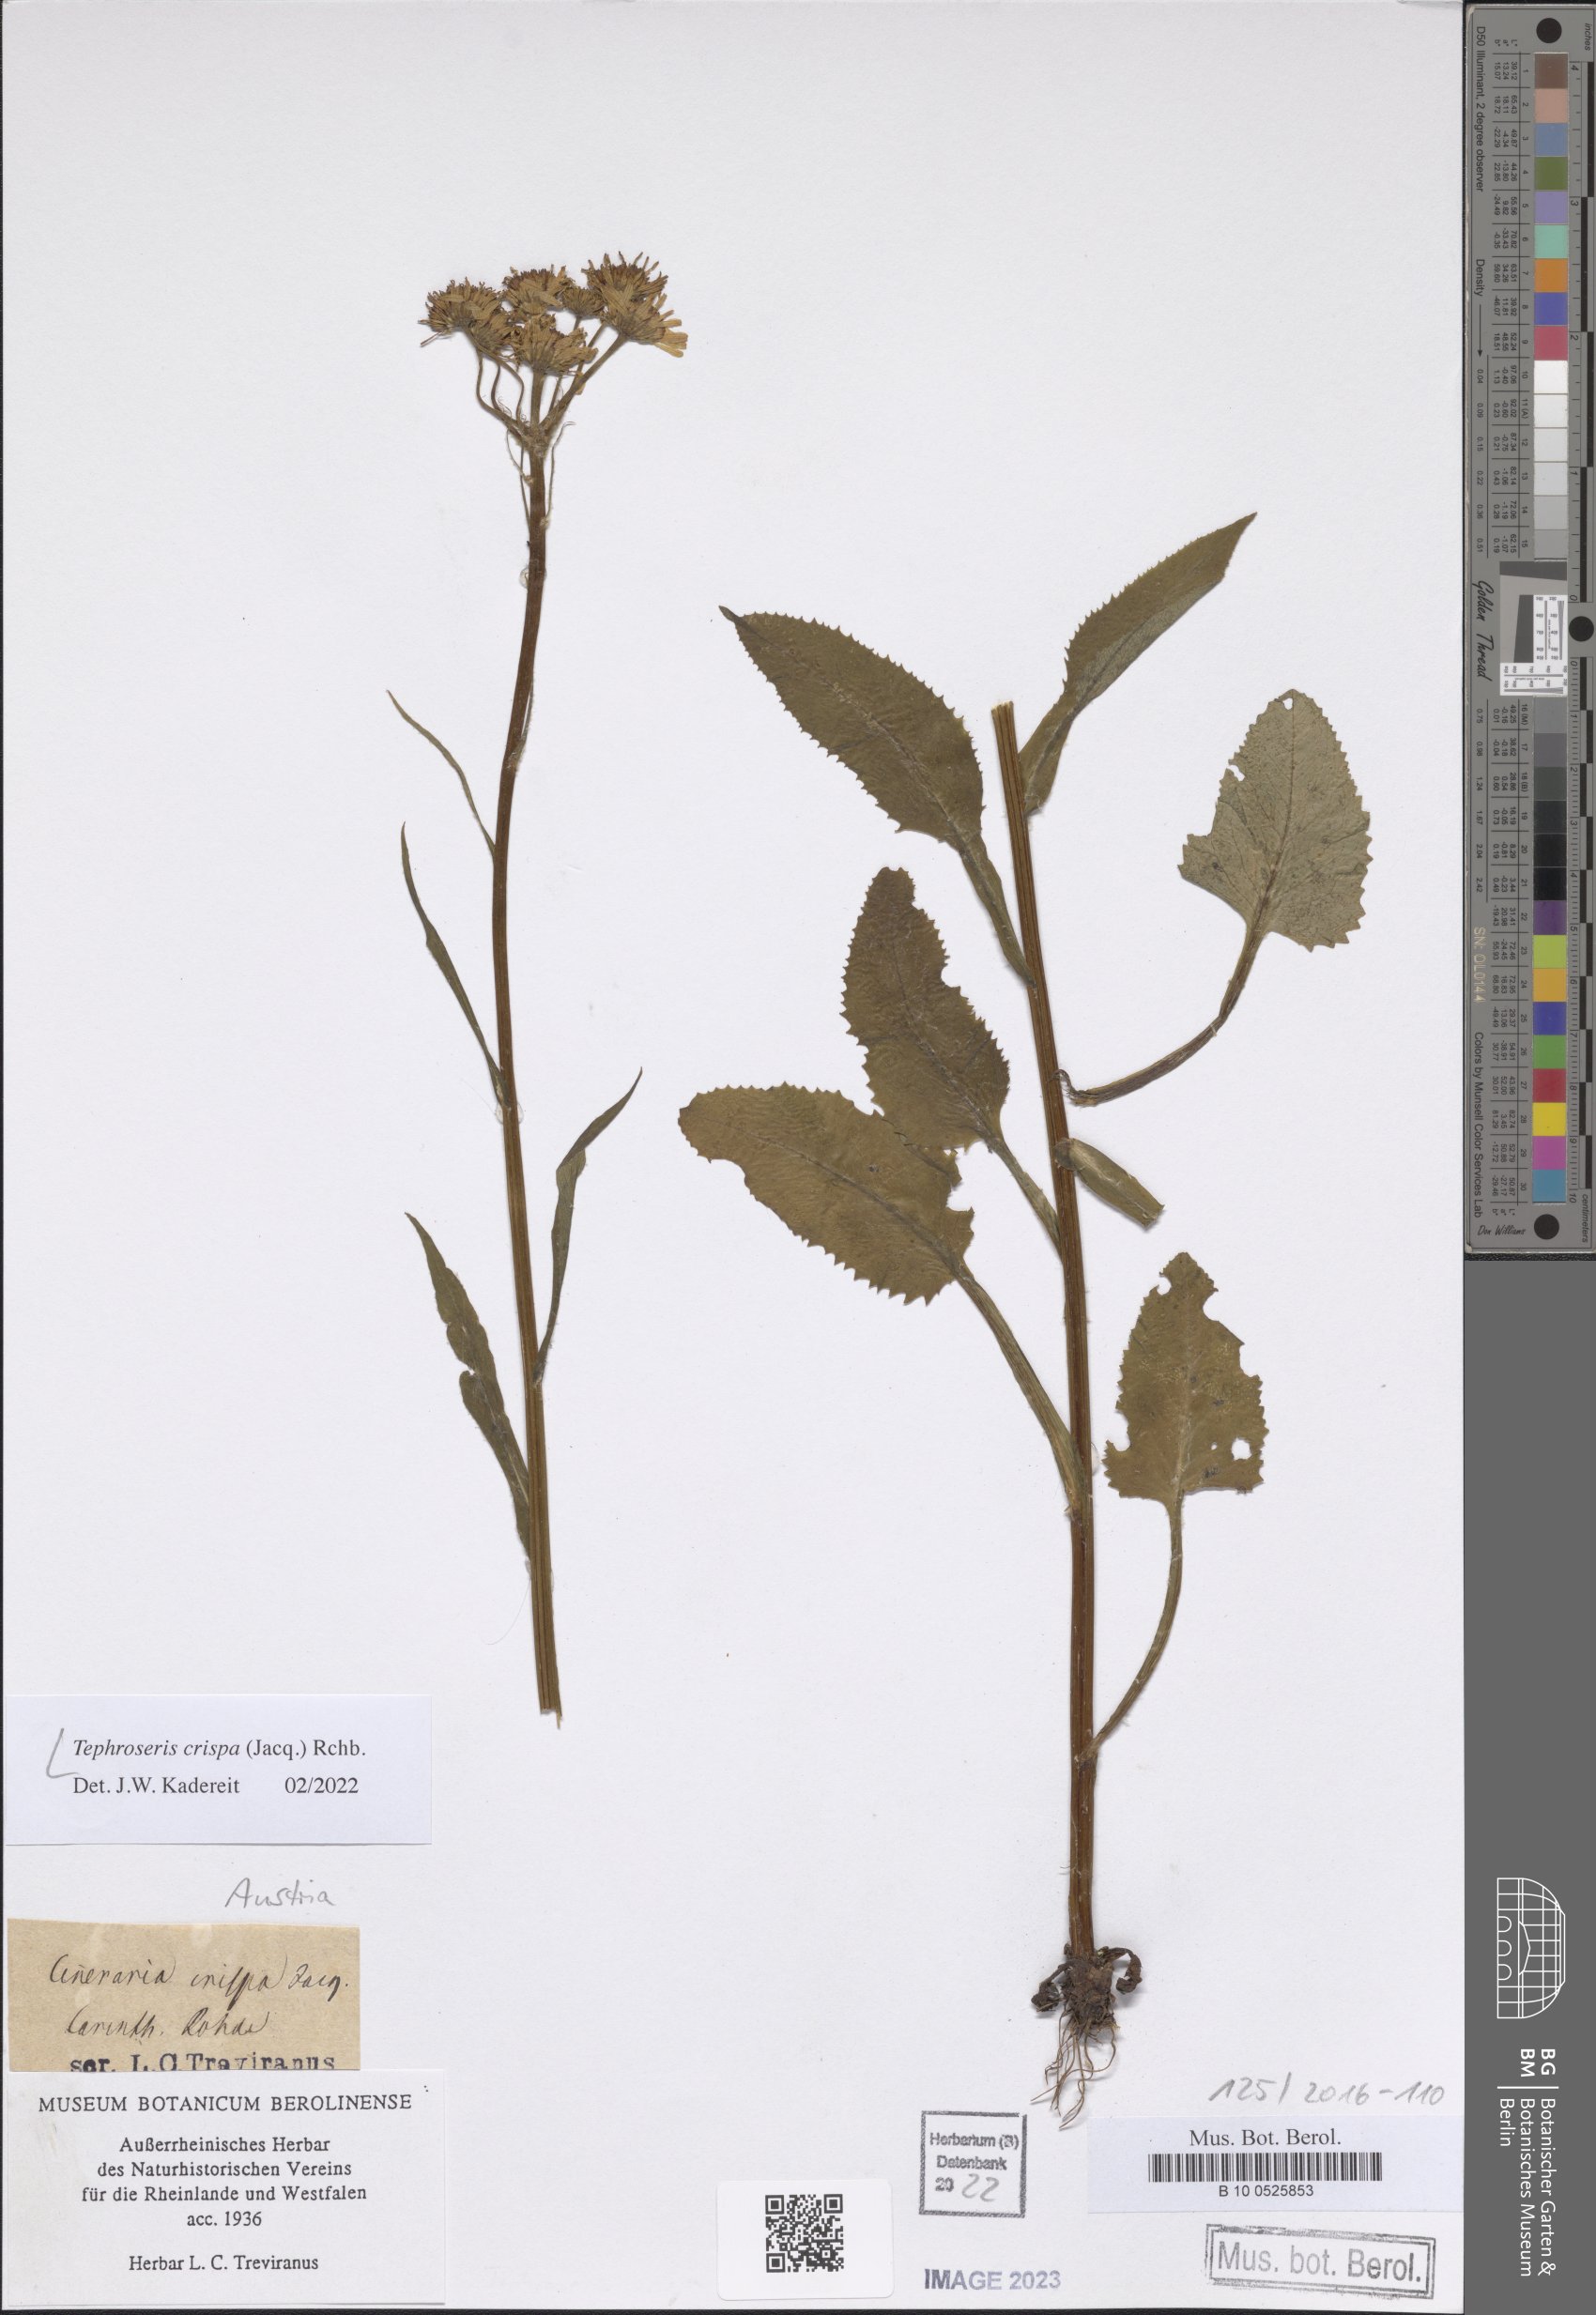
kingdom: Plantae
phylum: Tracheophyta
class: Magnoliopsida
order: Asterales
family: Asteraceae
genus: Tephroseris
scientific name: Tephroseris crispa
